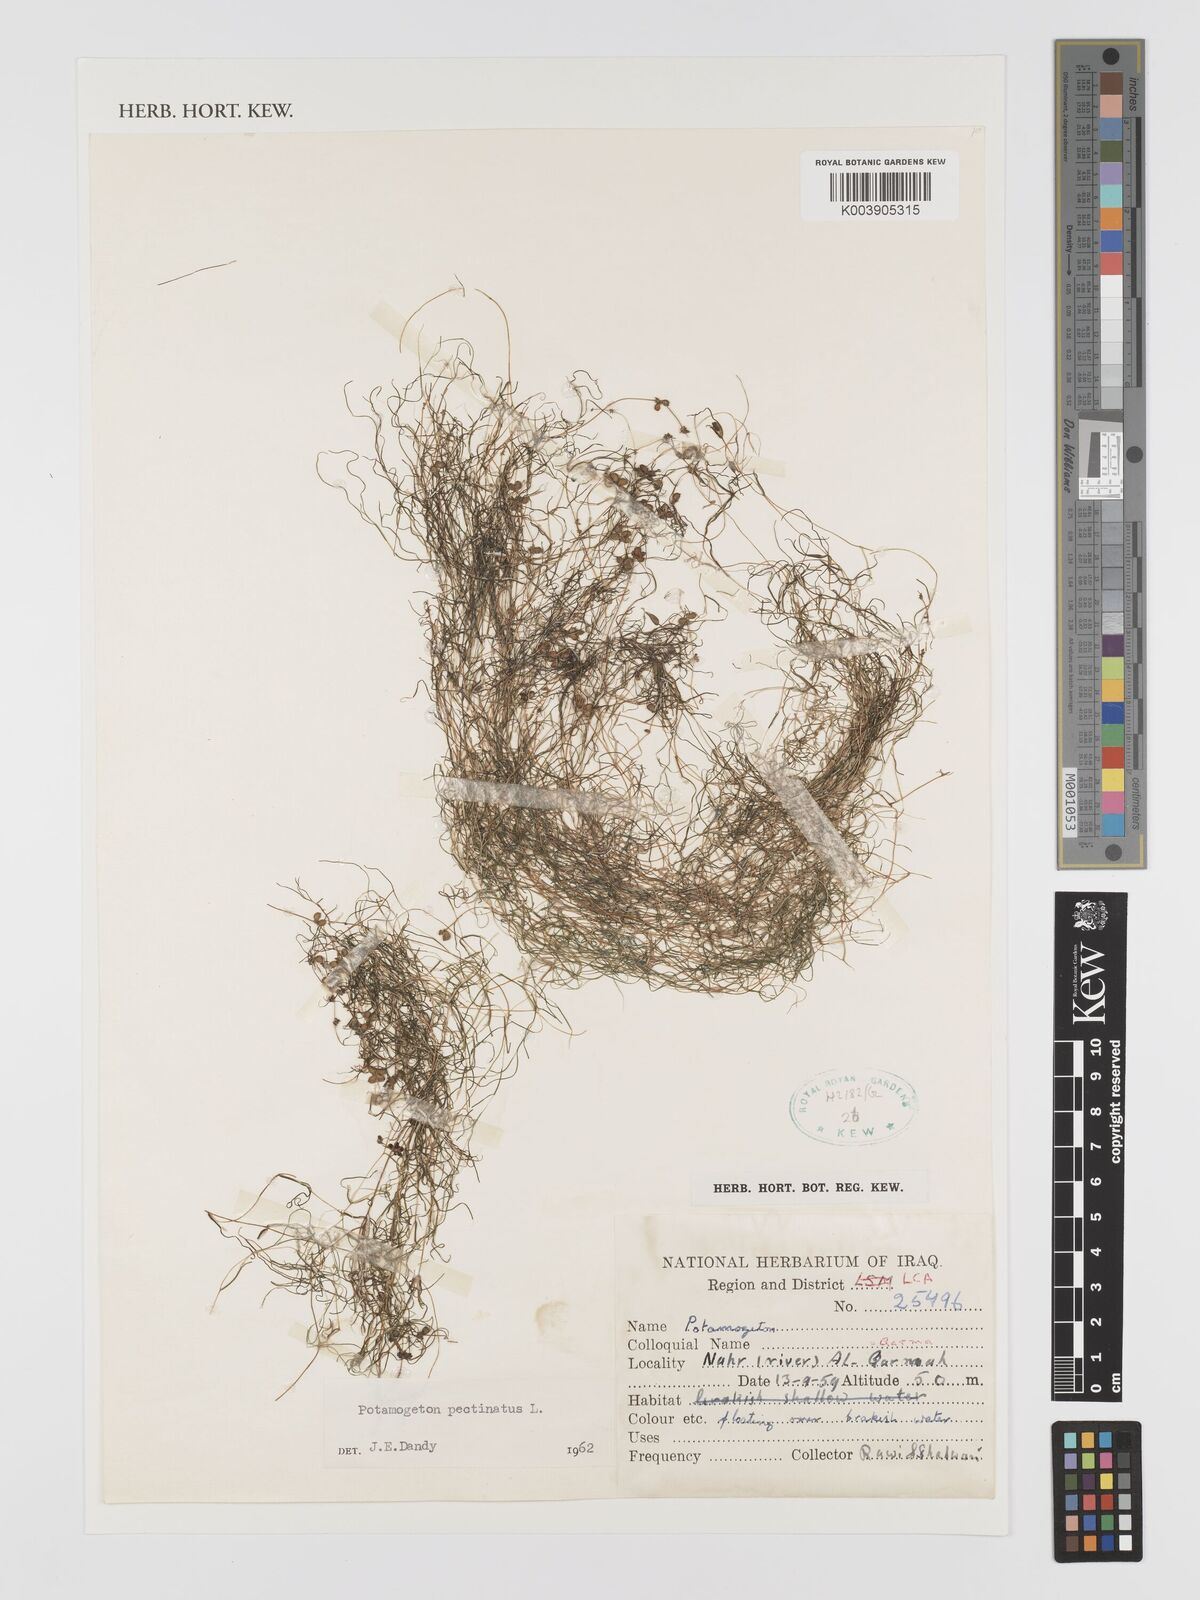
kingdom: Plantae
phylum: Tracheophyta
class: Liliopsida
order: Alismatales
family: Potamogetonaceae
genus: Stuckenia
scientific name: Stuckenia pectinata
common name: Sago pondweed
